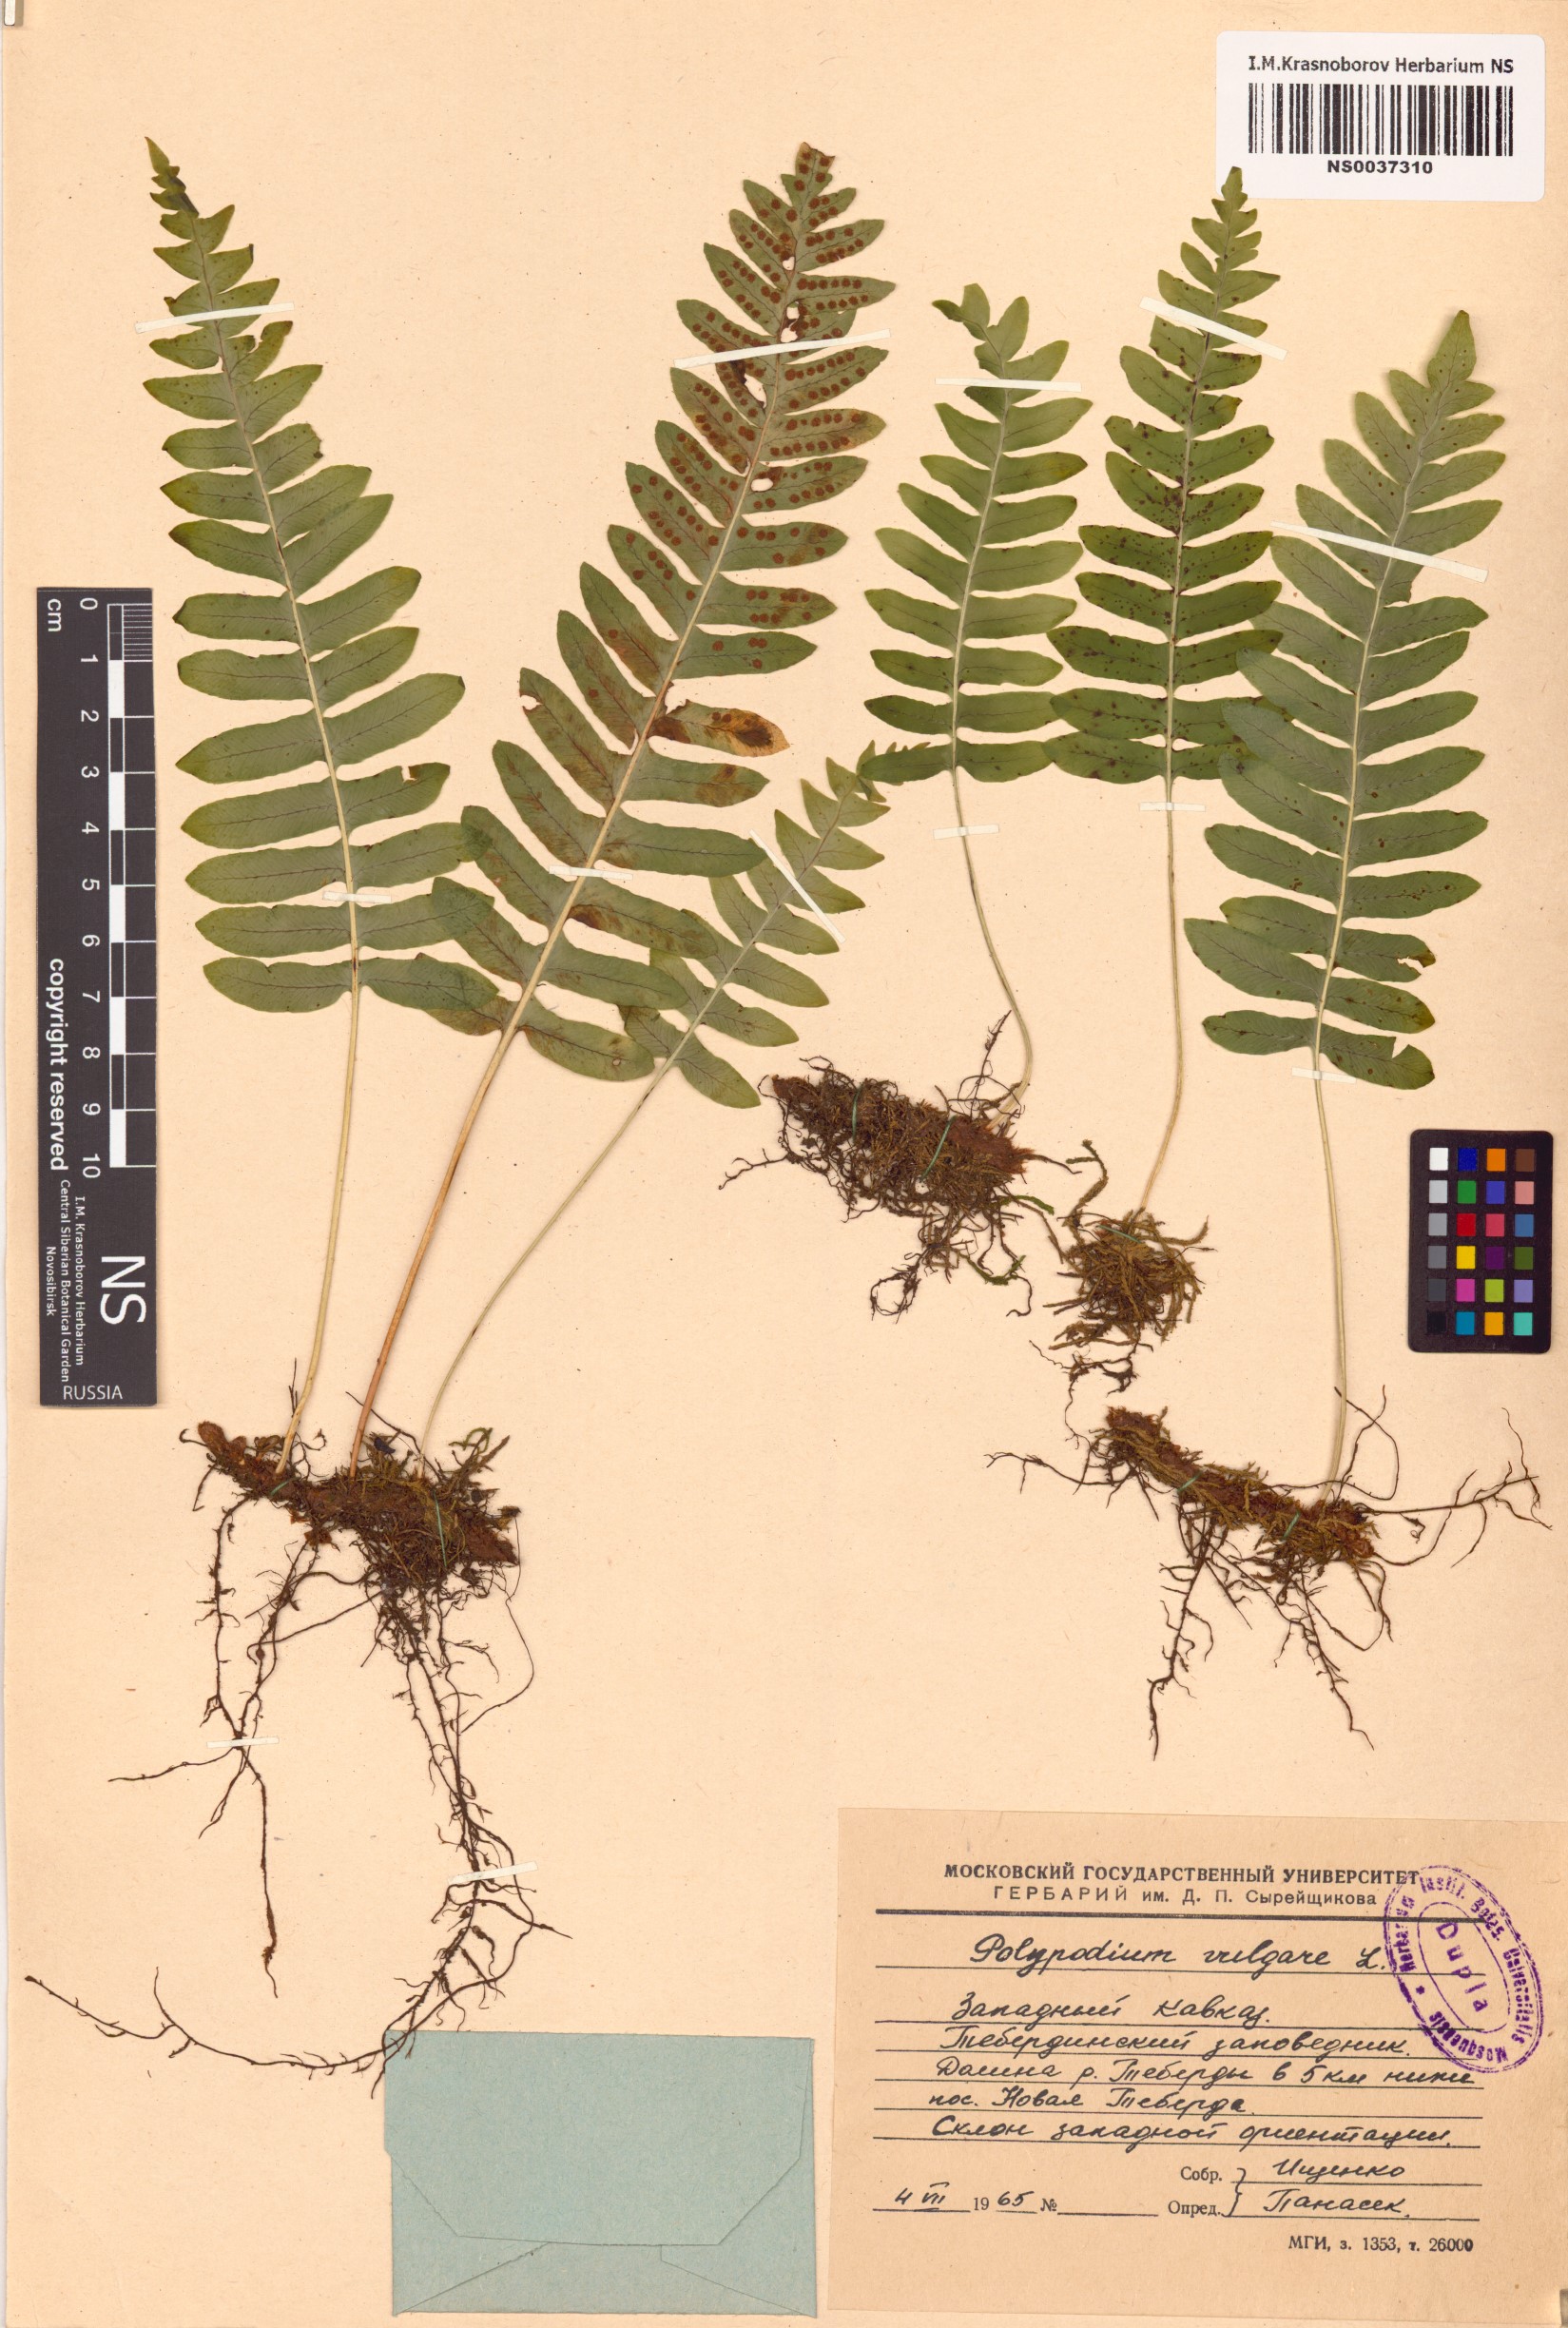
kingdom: Plantae
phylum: Tracheophyta
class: Polypodiopsida
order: Polypodiales
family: Polypodiaceae
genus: Polypodium
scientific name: Polypodium vulgare
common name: Common polypody
